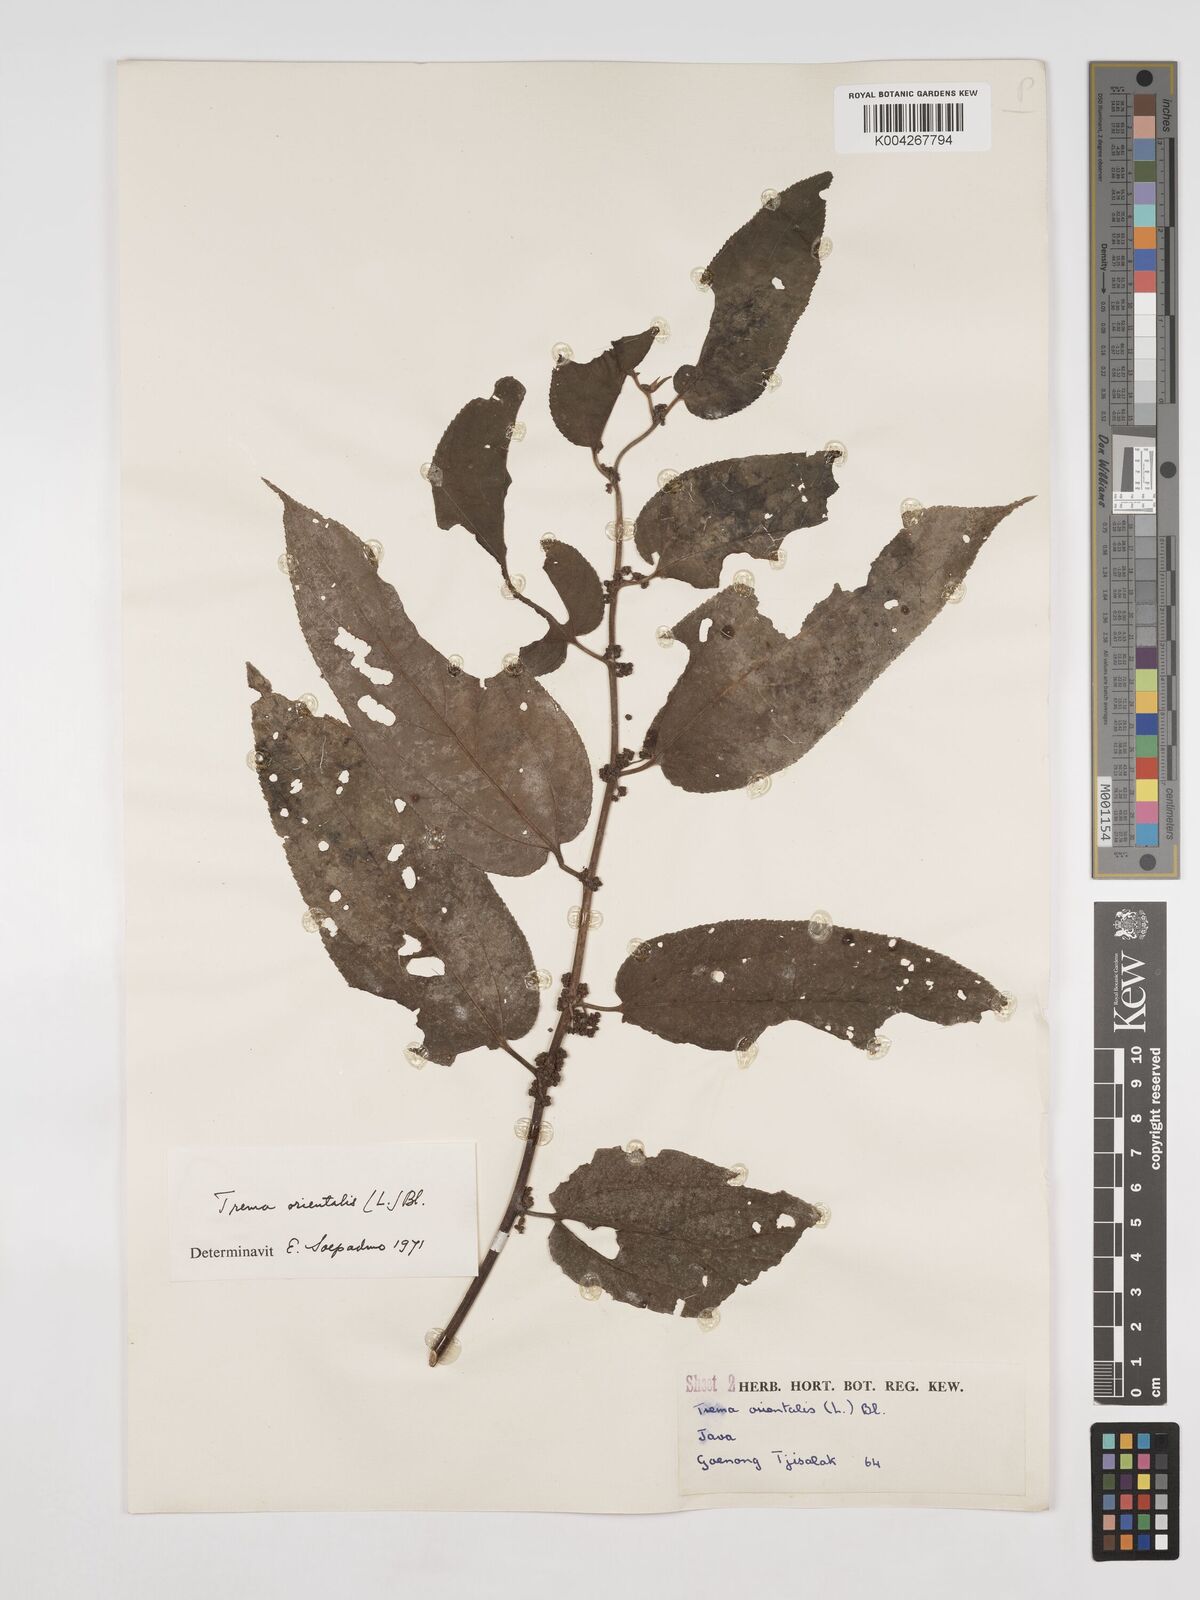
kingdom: Plantae
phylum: Tracheophyta
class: Magnoliopsida
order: Rosales
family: Cannabaceae
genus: Trema
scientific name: Trema orientale
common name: Indian charcoal tree
